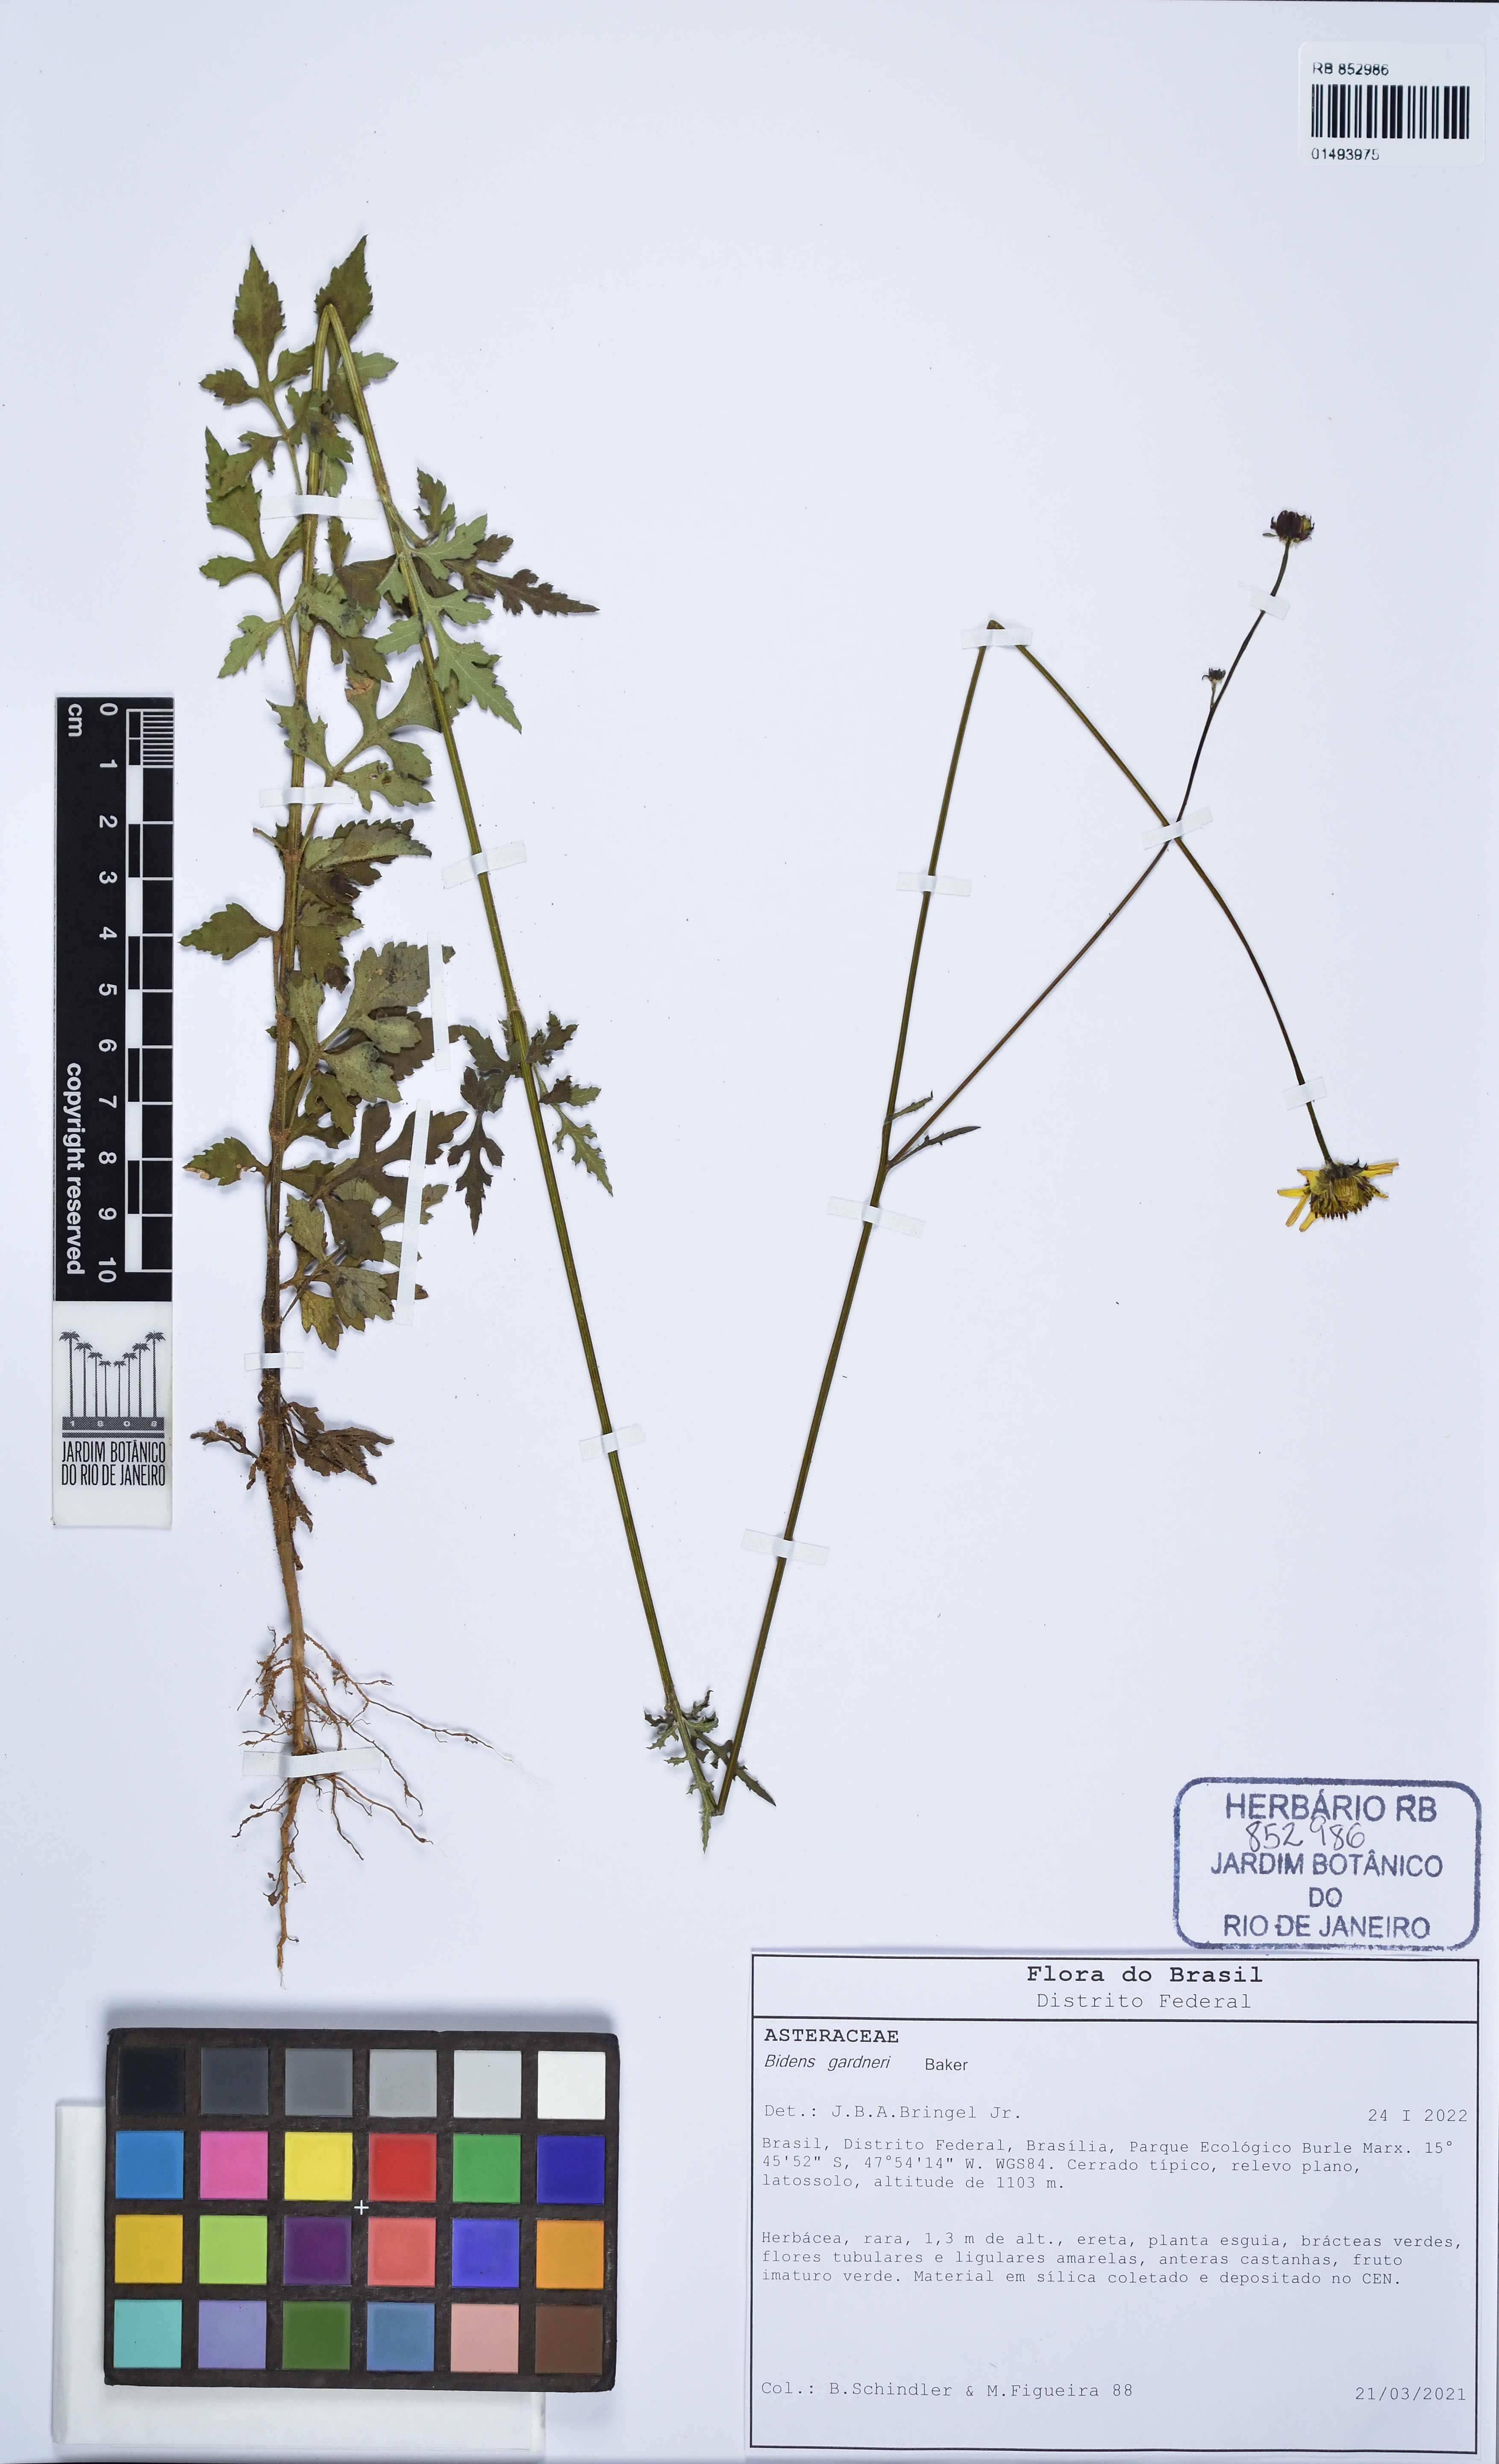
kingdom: Plantae
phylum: Tracheophyta
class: Magnoliopsida
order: Asterales
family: Asteraceae
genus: Bidens
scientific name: Bidens gardneri
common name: Ridge beggartick
